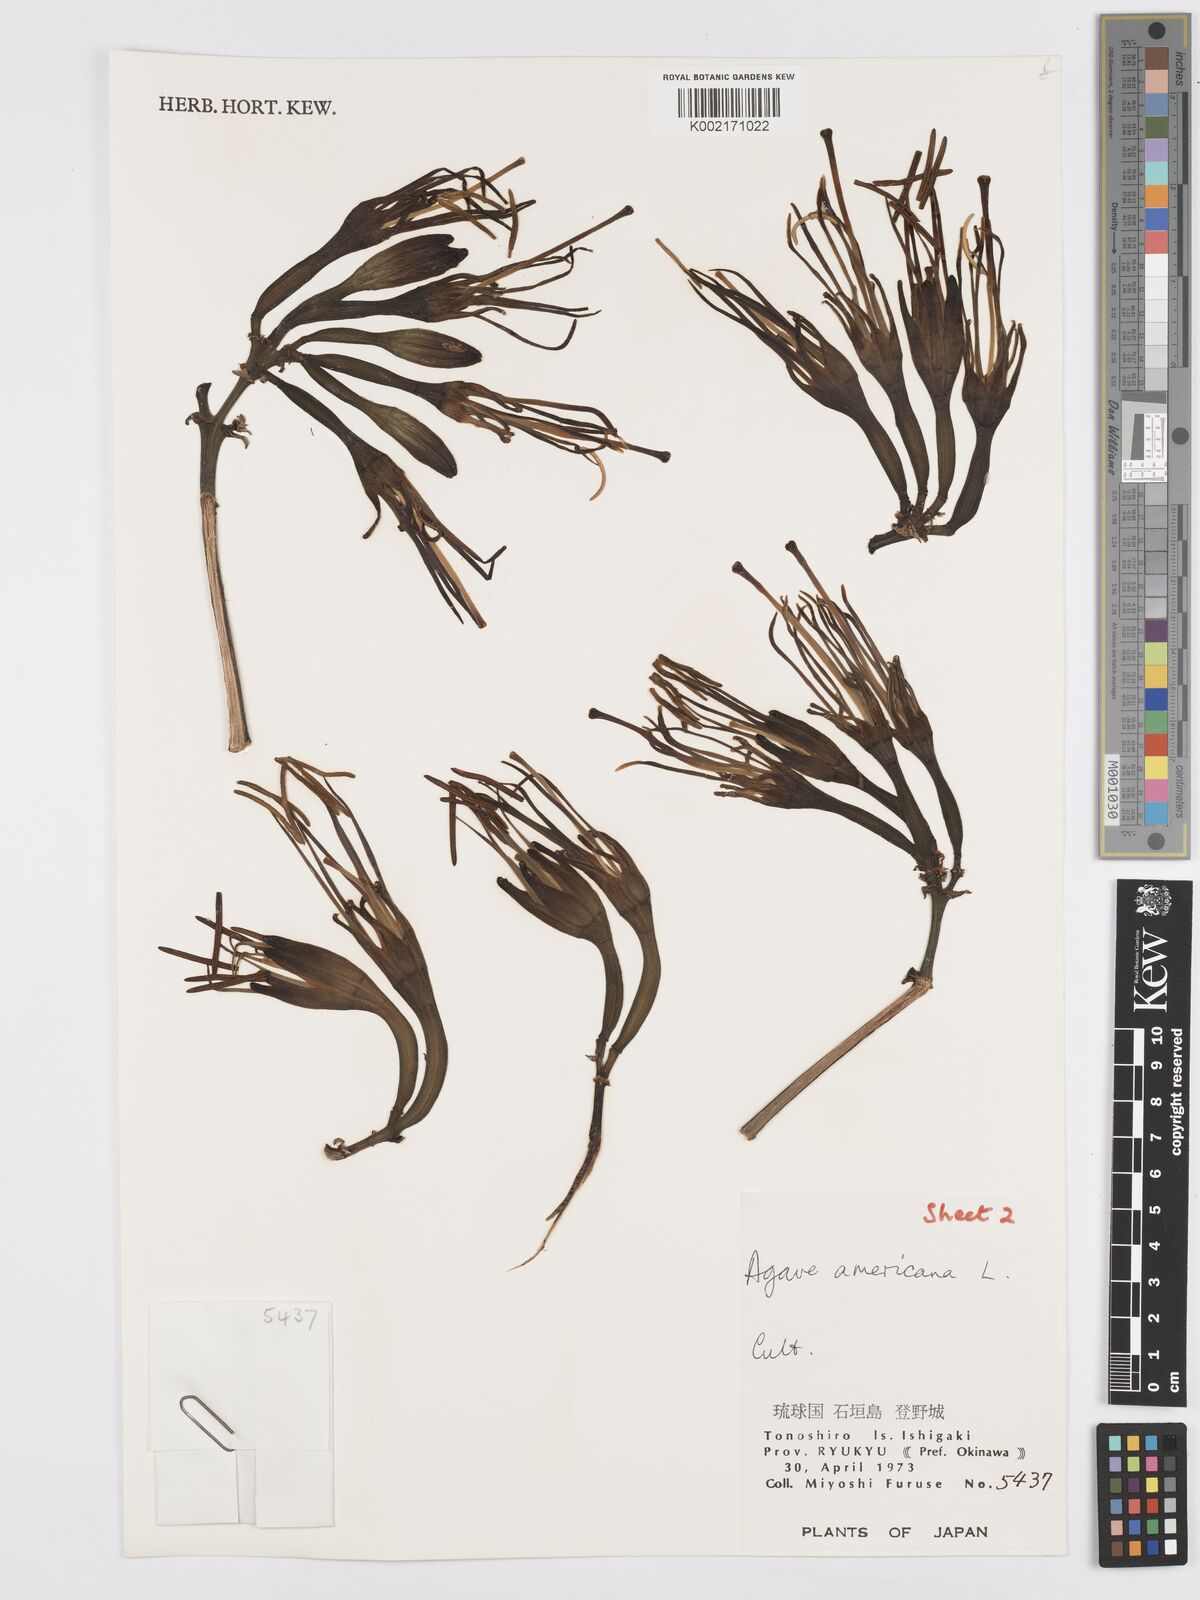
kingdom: Plantae
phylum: Tracheophyta
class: Liliopsida
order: Asparagales
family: Asparagaceae
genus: Agave
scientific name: Agave americana
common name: Centuryplant
